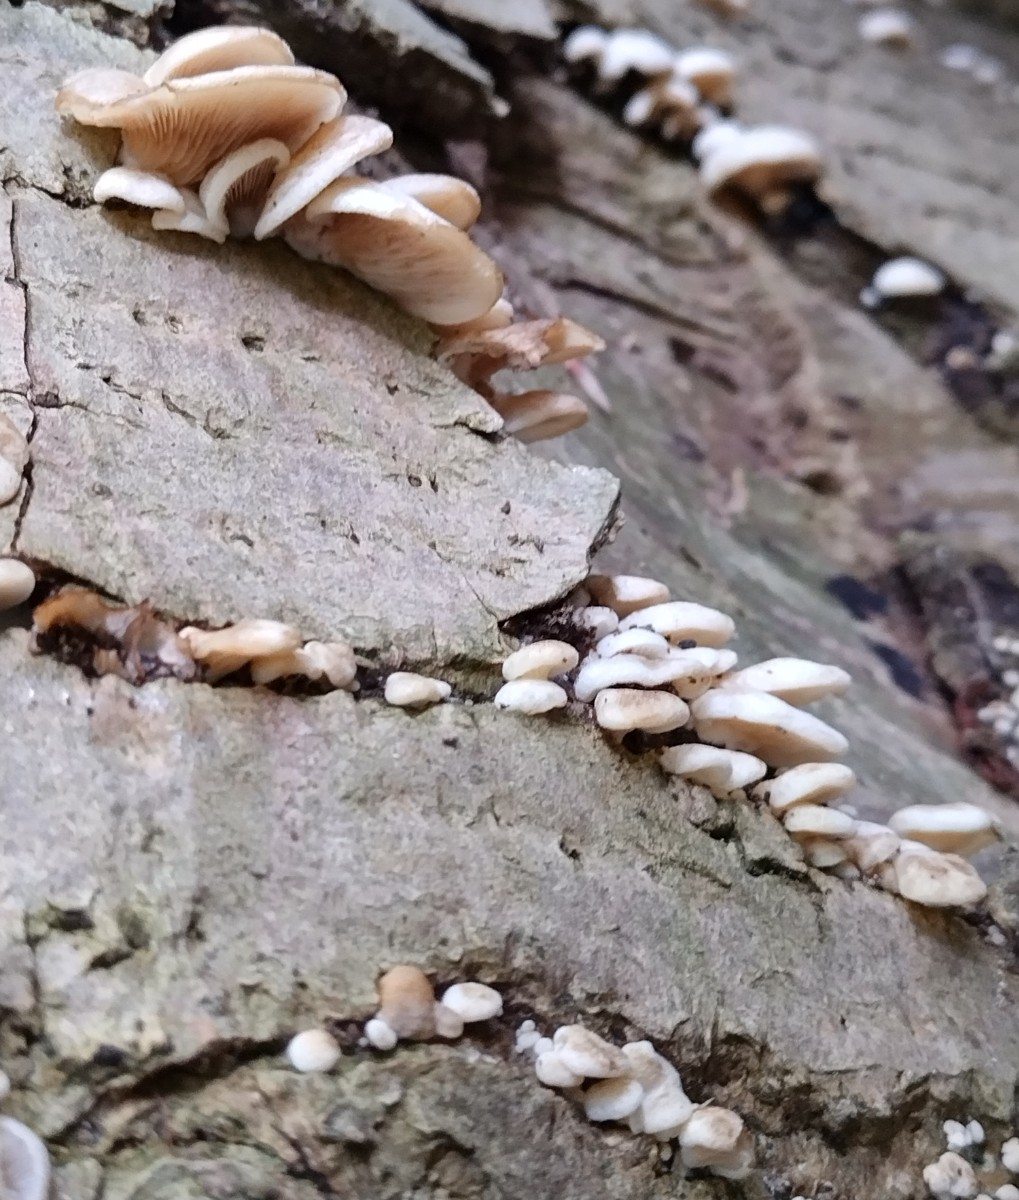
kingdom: Fungi
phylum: Basidiomycota
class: Agaricomycetes
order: Agaricales
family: Crepidotaceae
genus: Crepidotus
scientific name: Crepidotus mollis
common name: blød muslingesvamp
